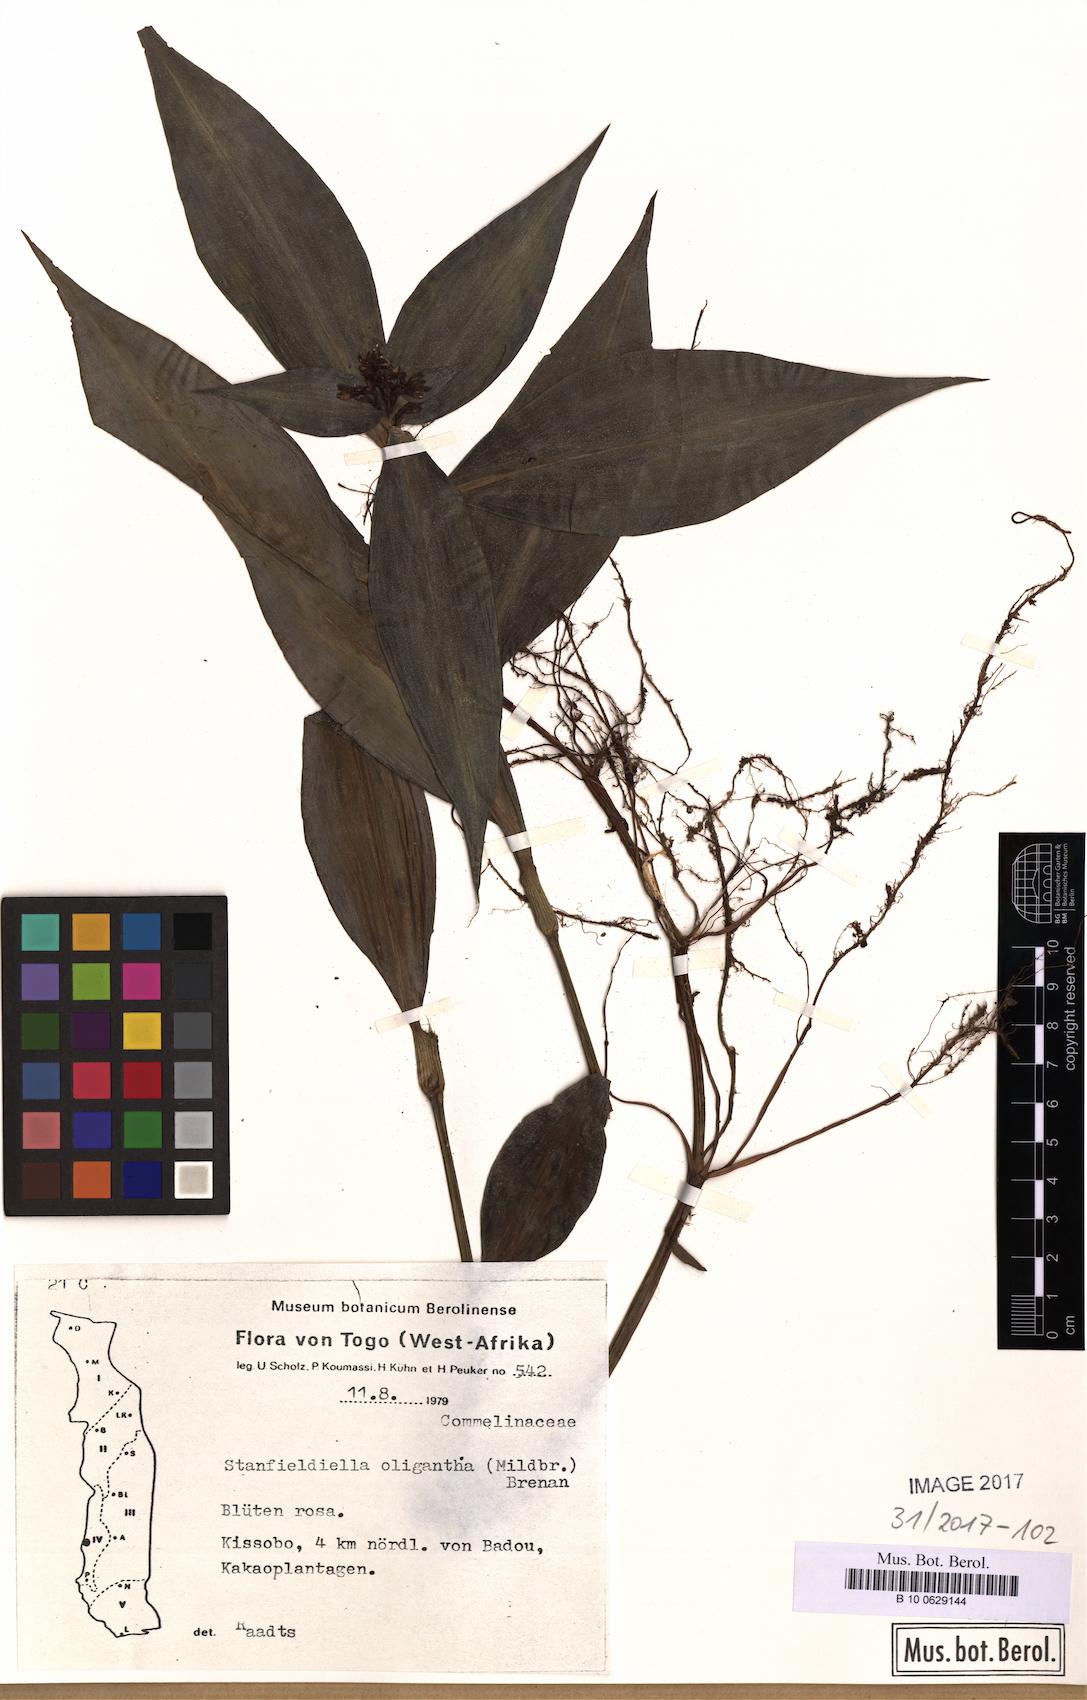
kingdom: Plantae
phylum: Tracheophyta
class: Liliopsida
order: Commelinales
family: Commelinaceae
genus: Stanfieldiella
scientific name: Stanfieldiella oligantha
